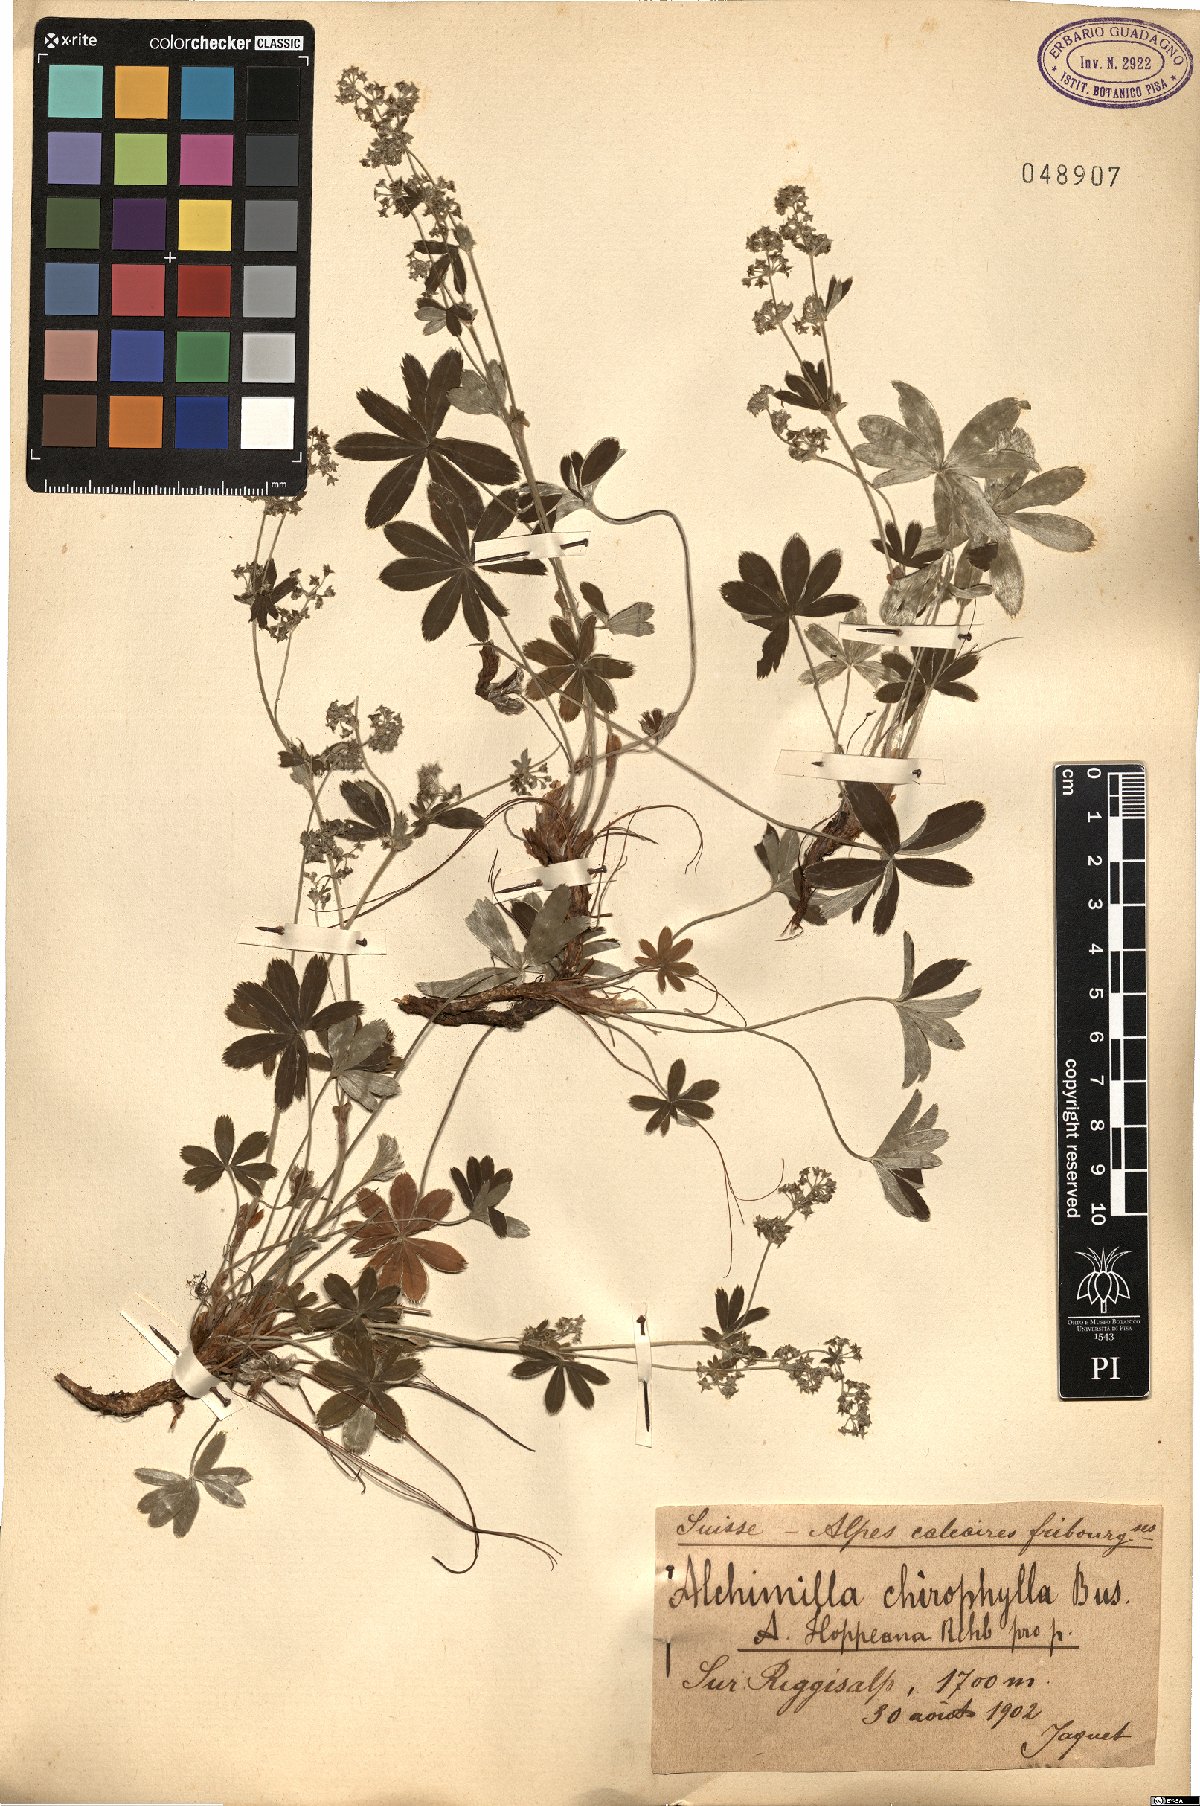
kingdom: Plantae
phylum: Tracheophyta
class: Magnoliopsida
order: Rosales
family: Rosaceae
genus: Alchemilla
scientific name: Alchemilla chirophylla
